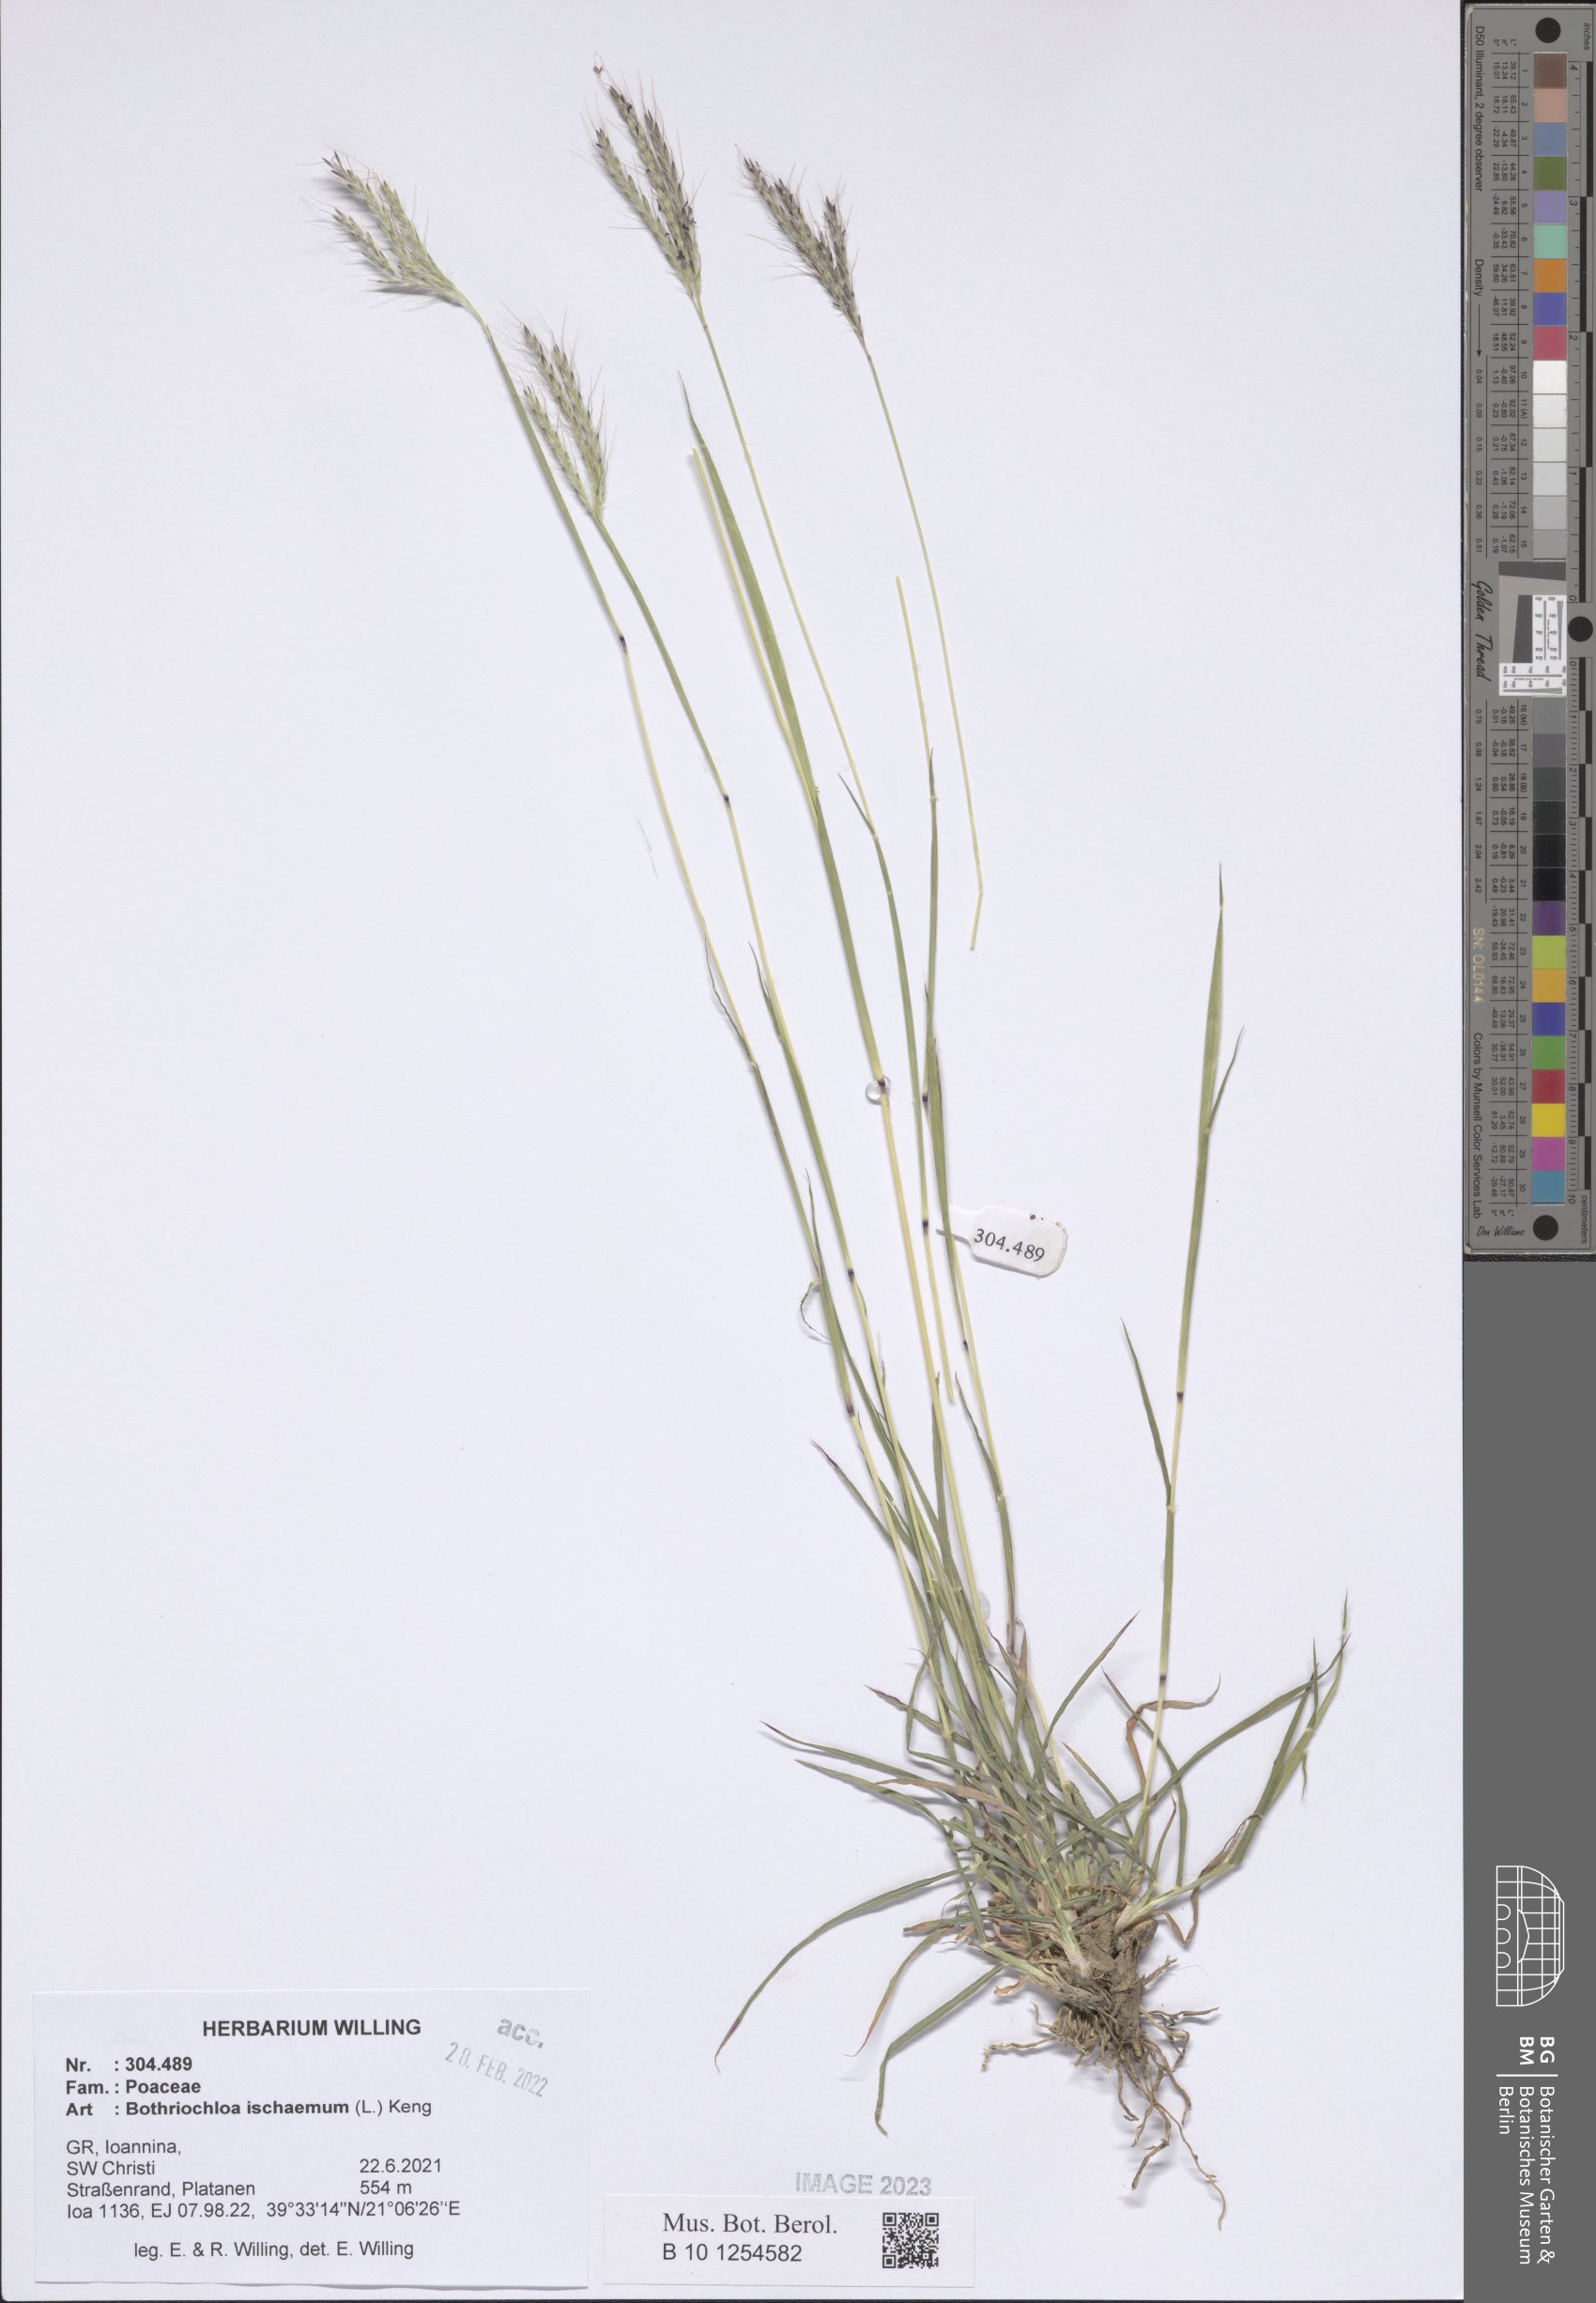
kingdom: Plantae
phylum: Tracheophyta
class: Liliopsida
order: Poales
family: Poaceae
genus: Bothriochloa
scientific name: Bothriochloa ischaemum
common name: Yellow bluestem
